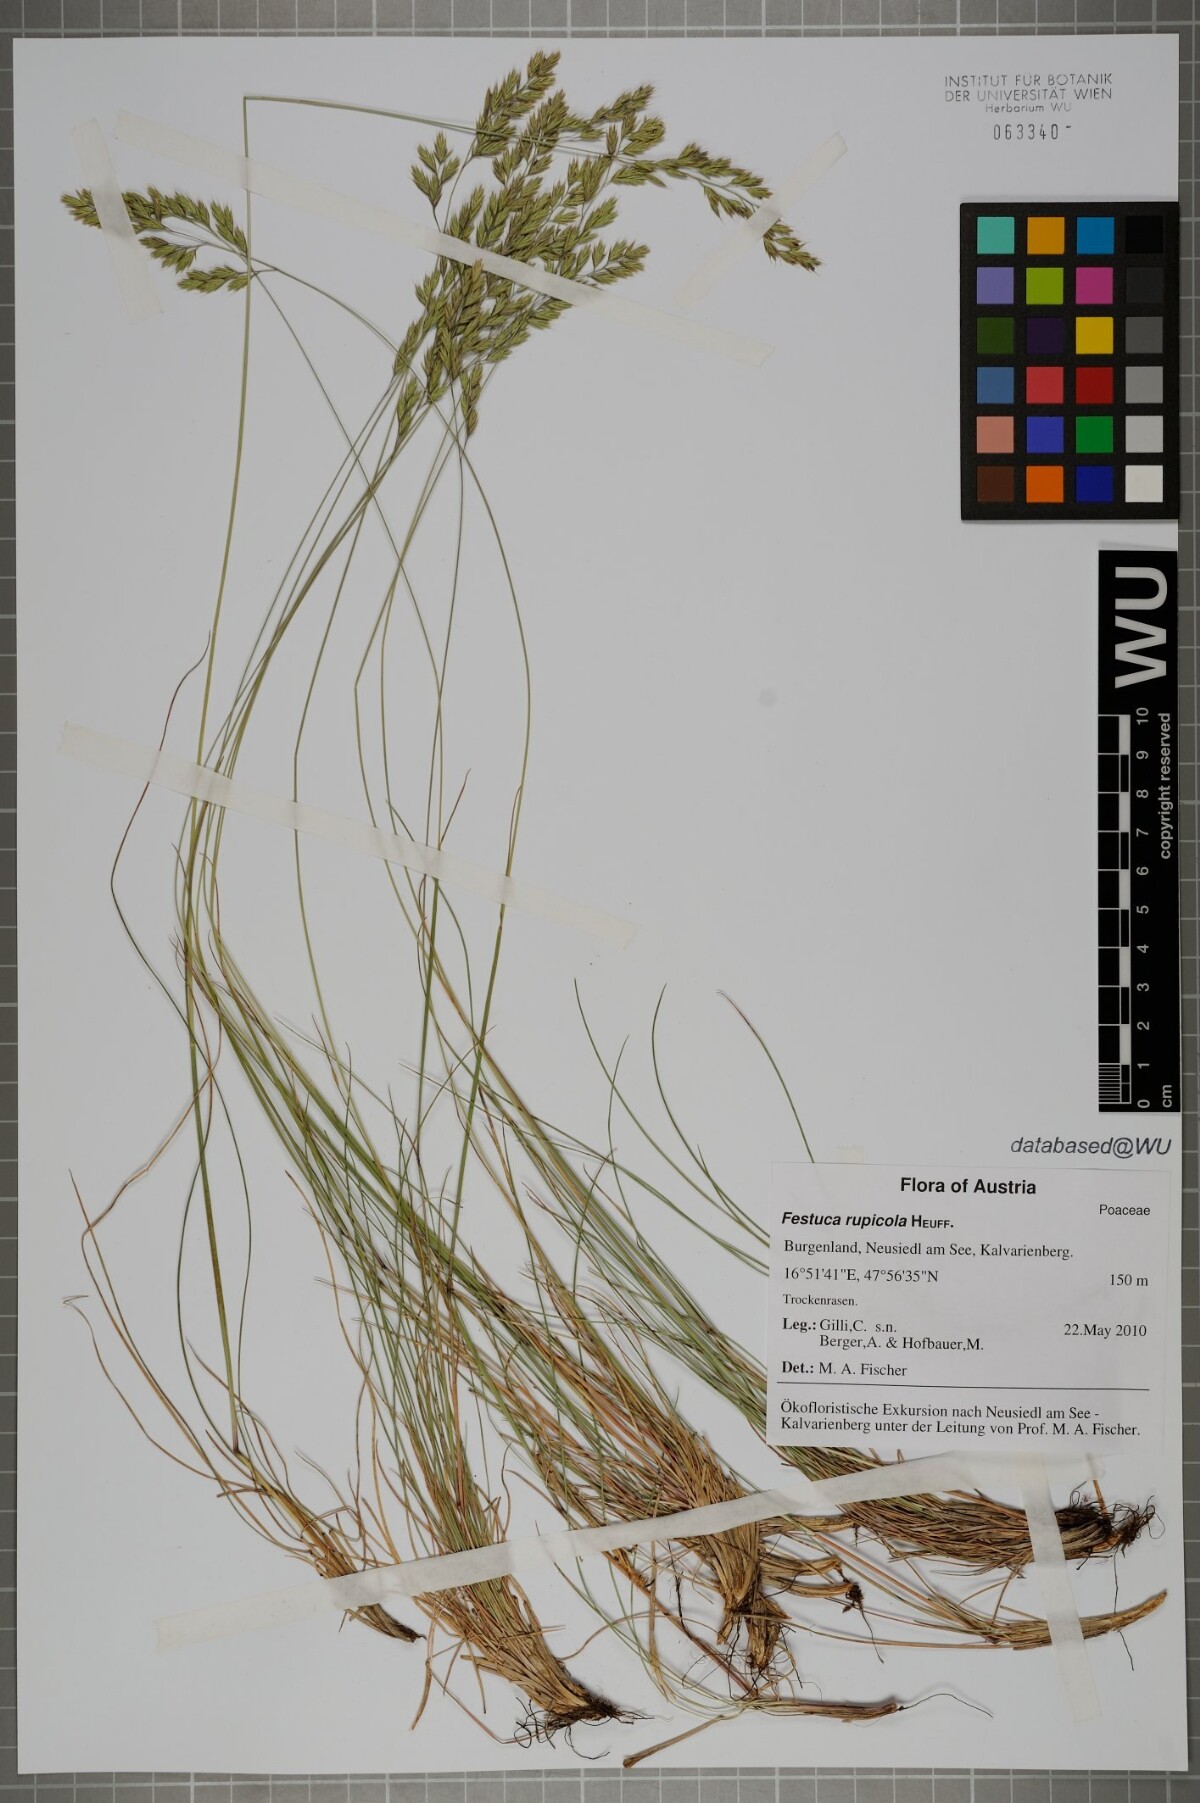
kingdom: Plantae
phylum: Tracheophyta
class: Liliopsida
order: Poales
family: Poaceae
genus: Festuca
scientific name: Festuca rupicola
